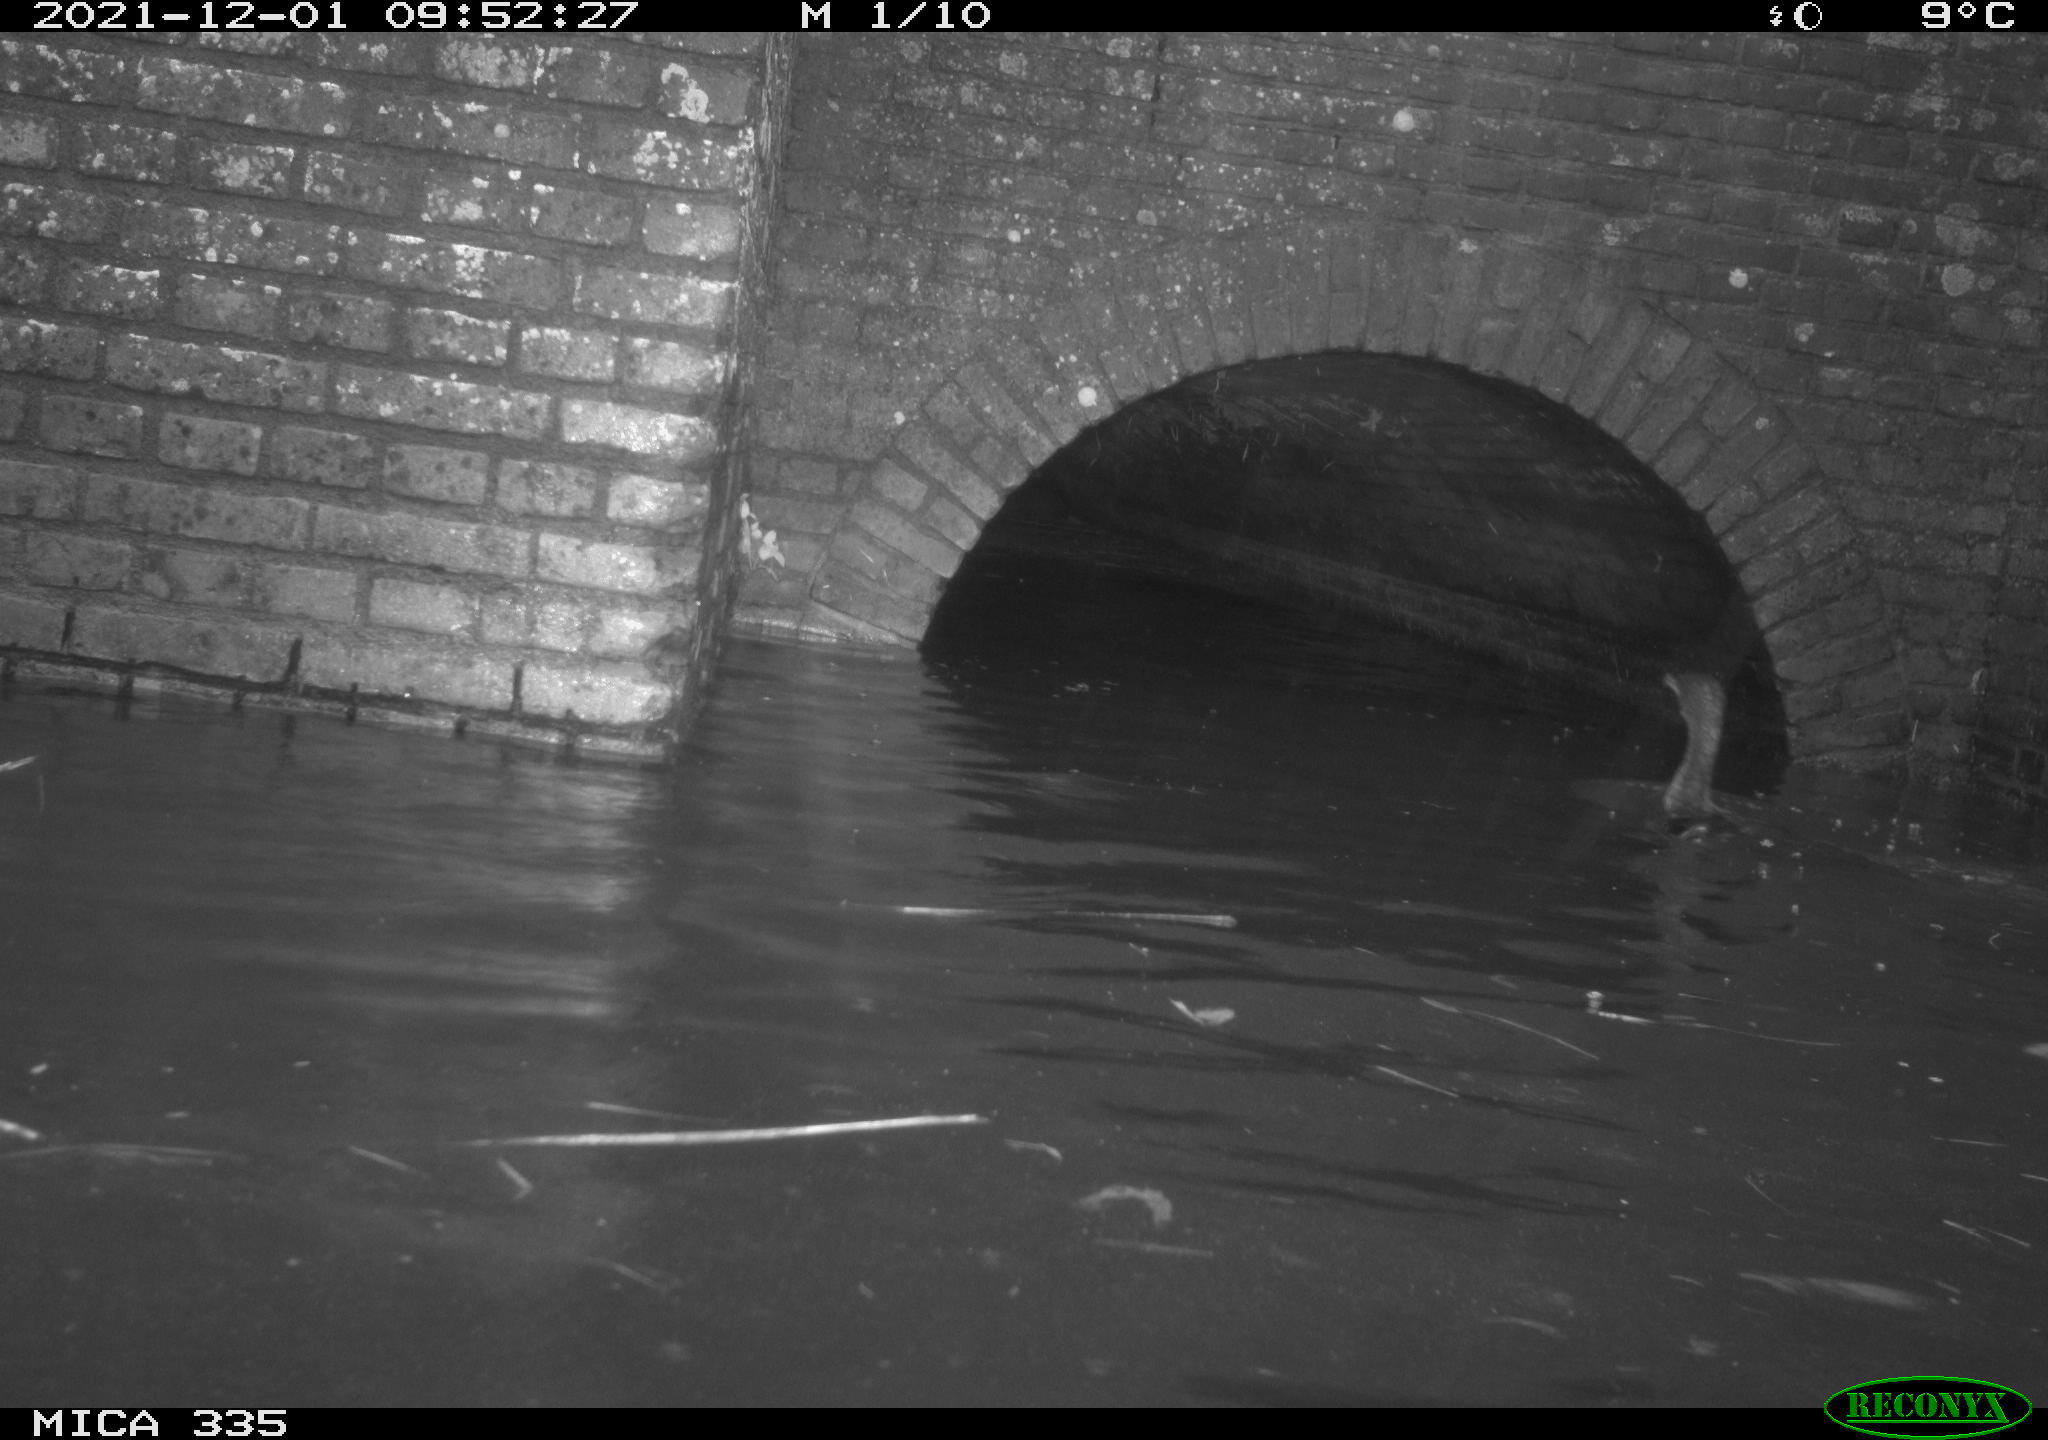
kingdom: Animalia
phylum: Chordata
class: Aves
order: Suliformes
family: Phalacrocoracidae
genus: Phalacrocorax
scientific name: Phalacrocorax carbo
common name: Great cormorant
